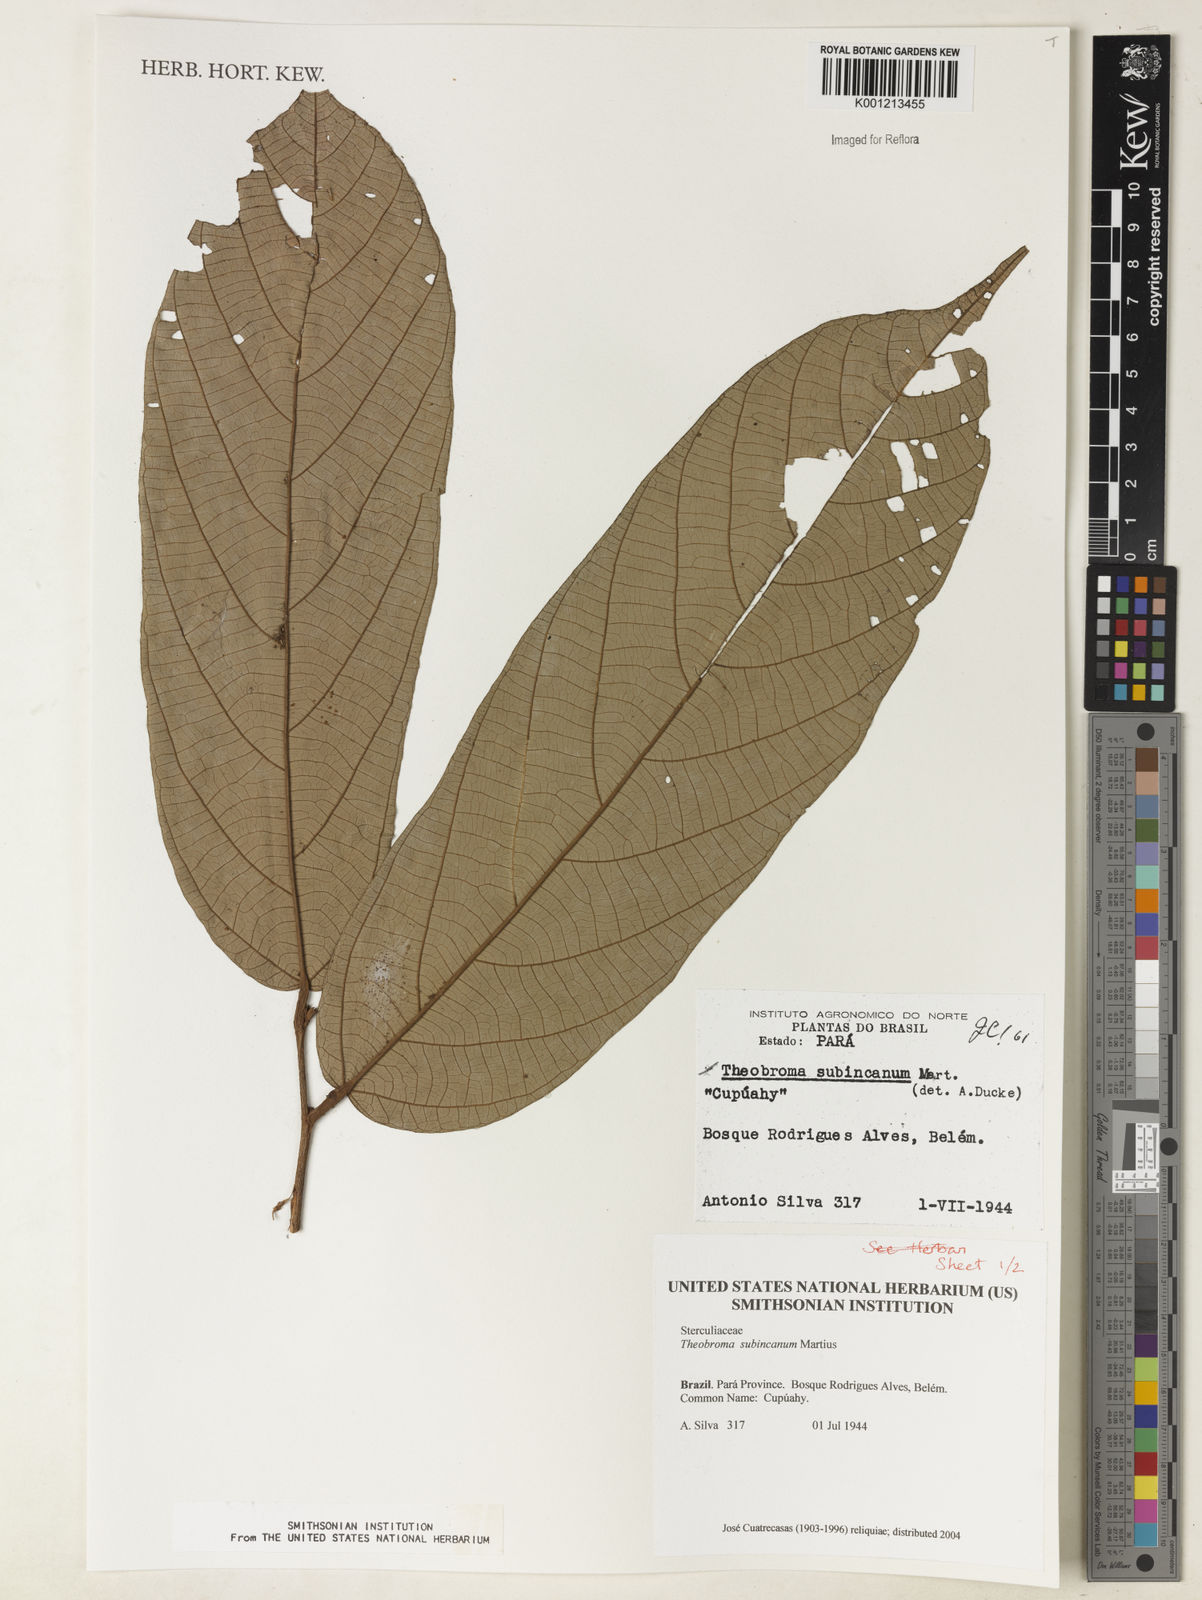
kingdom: Plantae
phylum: Tracheophyta
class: Magnoliopsida
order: Malvales
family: Malvaceae
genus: Theobroma
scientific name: Theobroma subincanum
